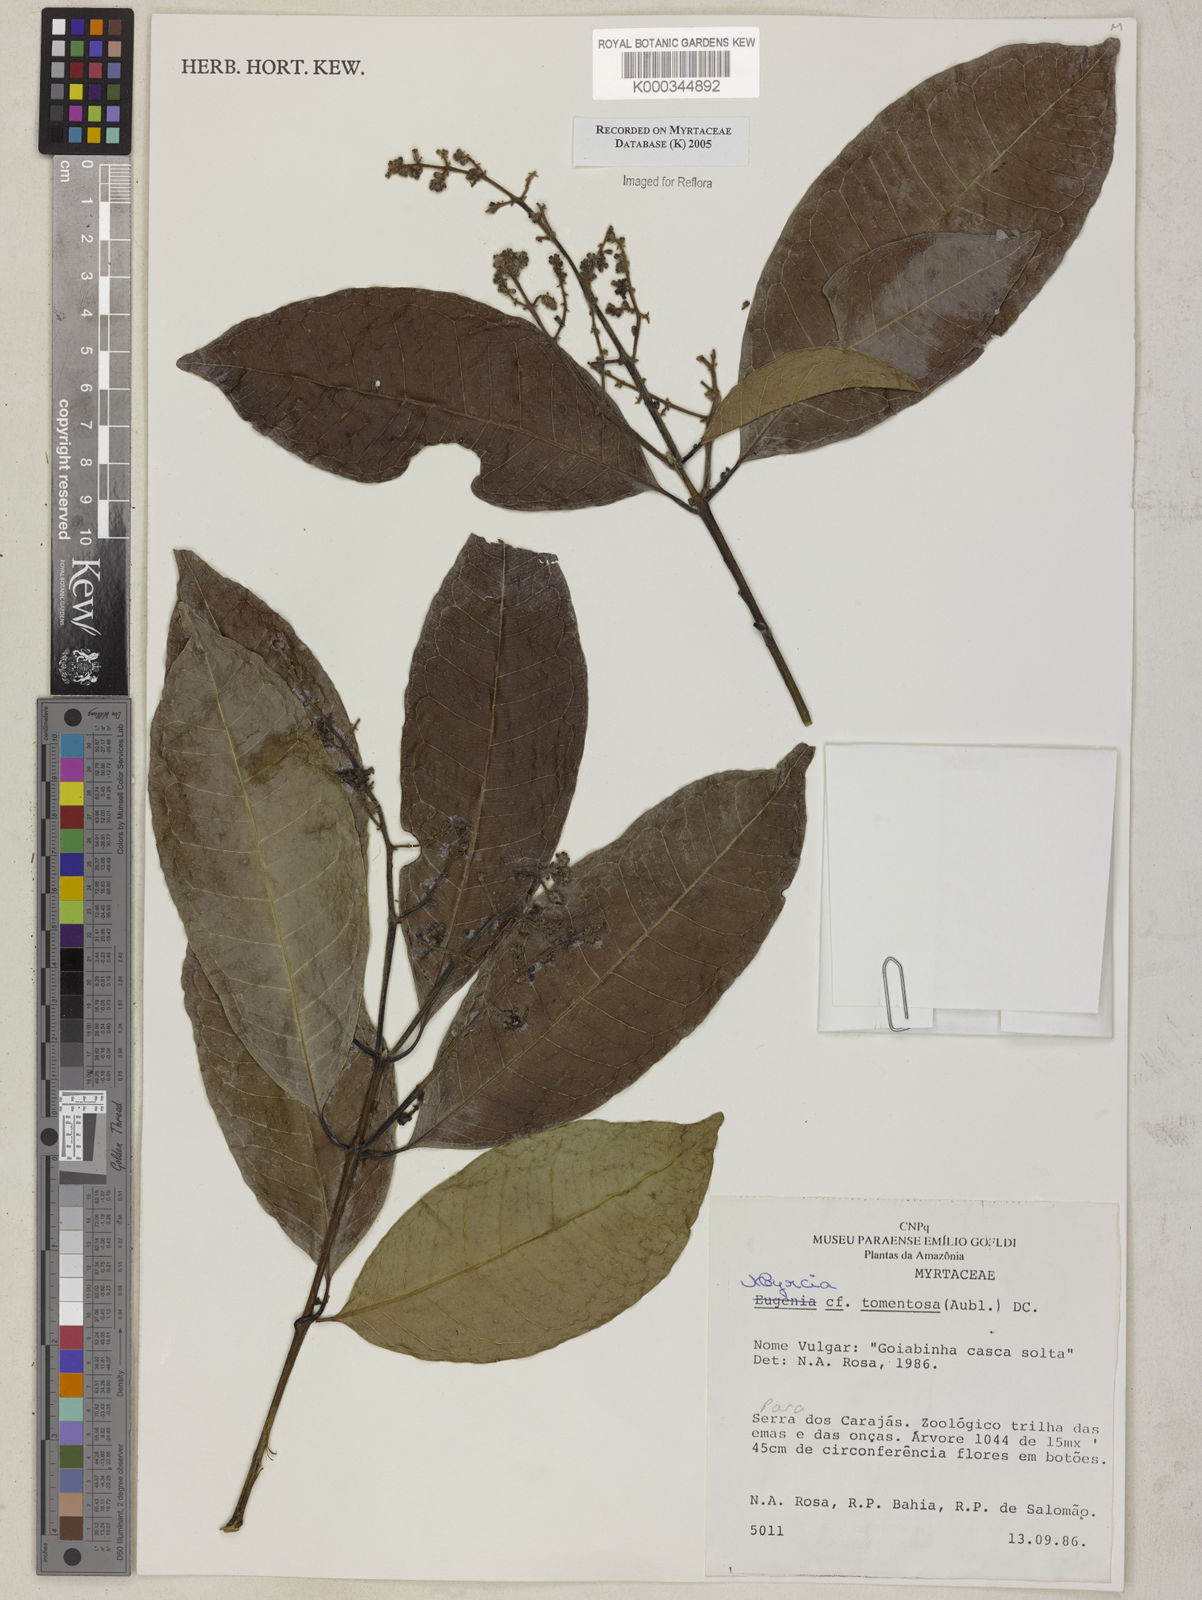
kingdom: Plantae
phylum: Tracheophyta
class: Magnoliopsida
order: Myrtales
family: Myrtaceae
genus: Myrcia
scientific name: Myrcia
